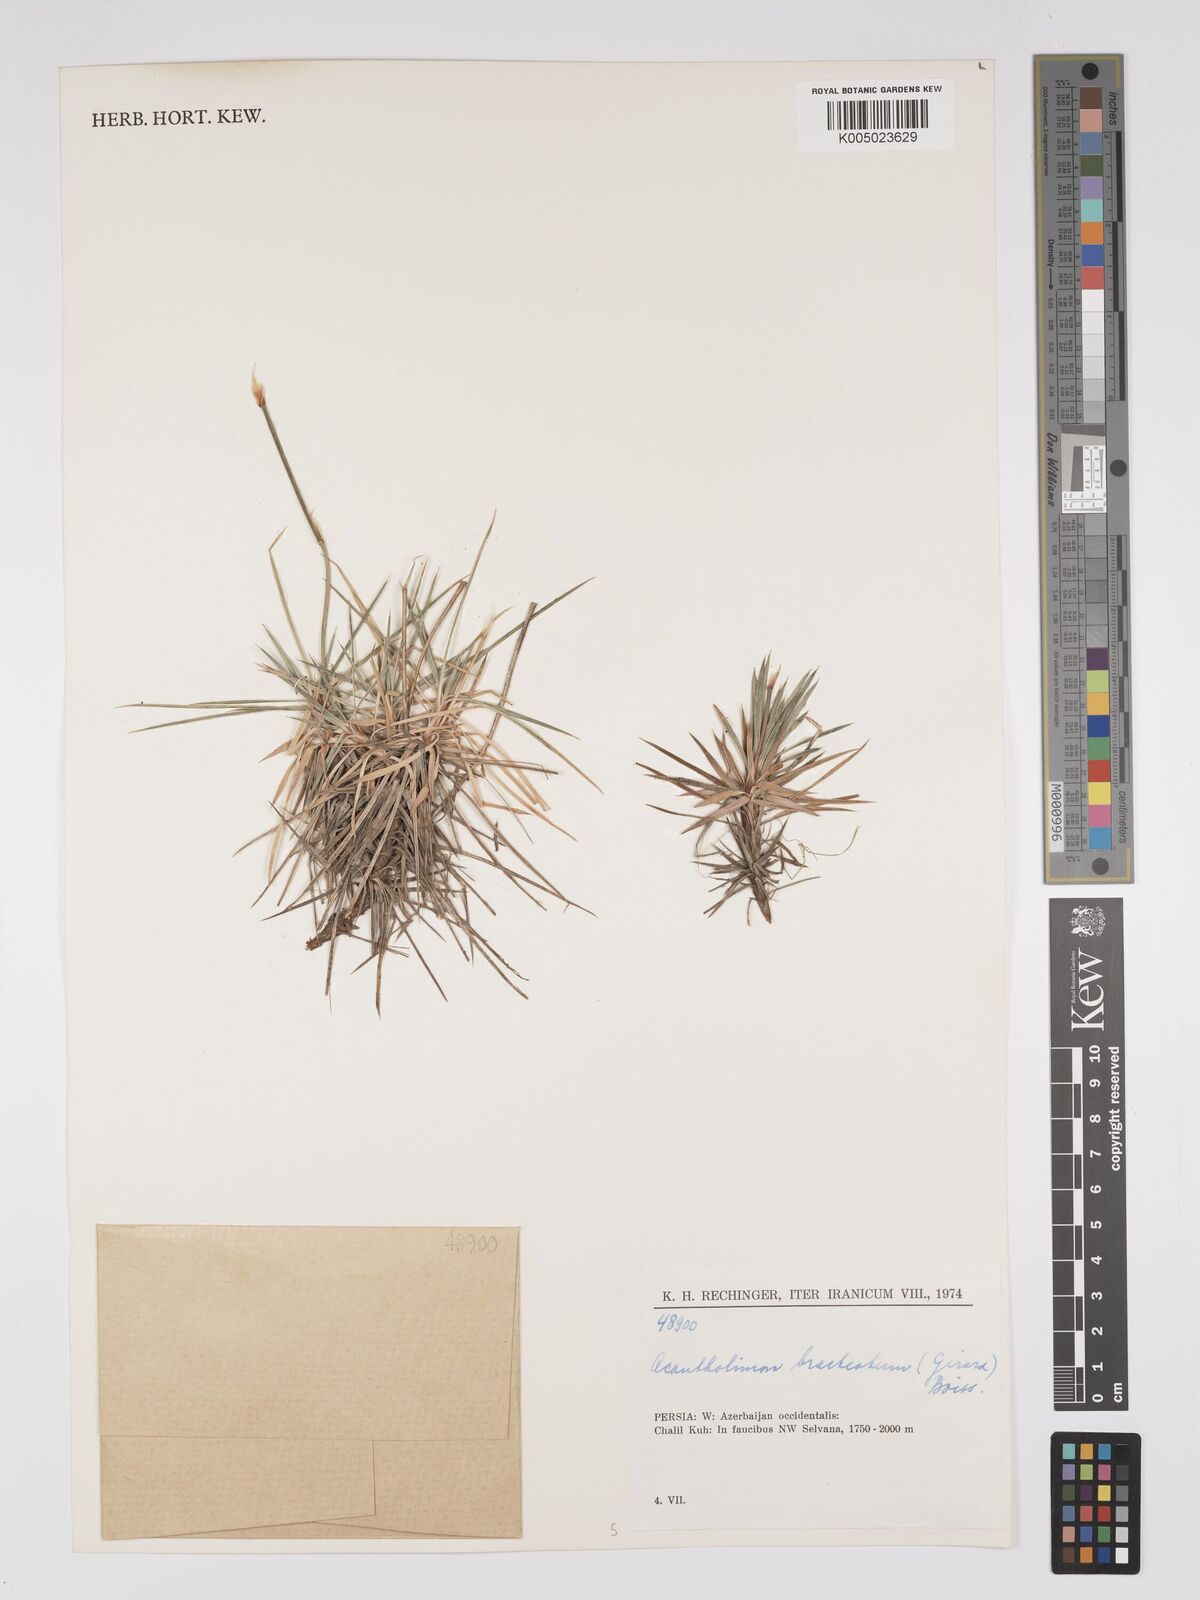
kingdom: Plantae
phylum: Tracheophyta
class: Magnoliopsida
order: Caryophyllales
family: Plumbaginaceae
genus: Acantholimon
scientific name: Acantholimon bracteatum
